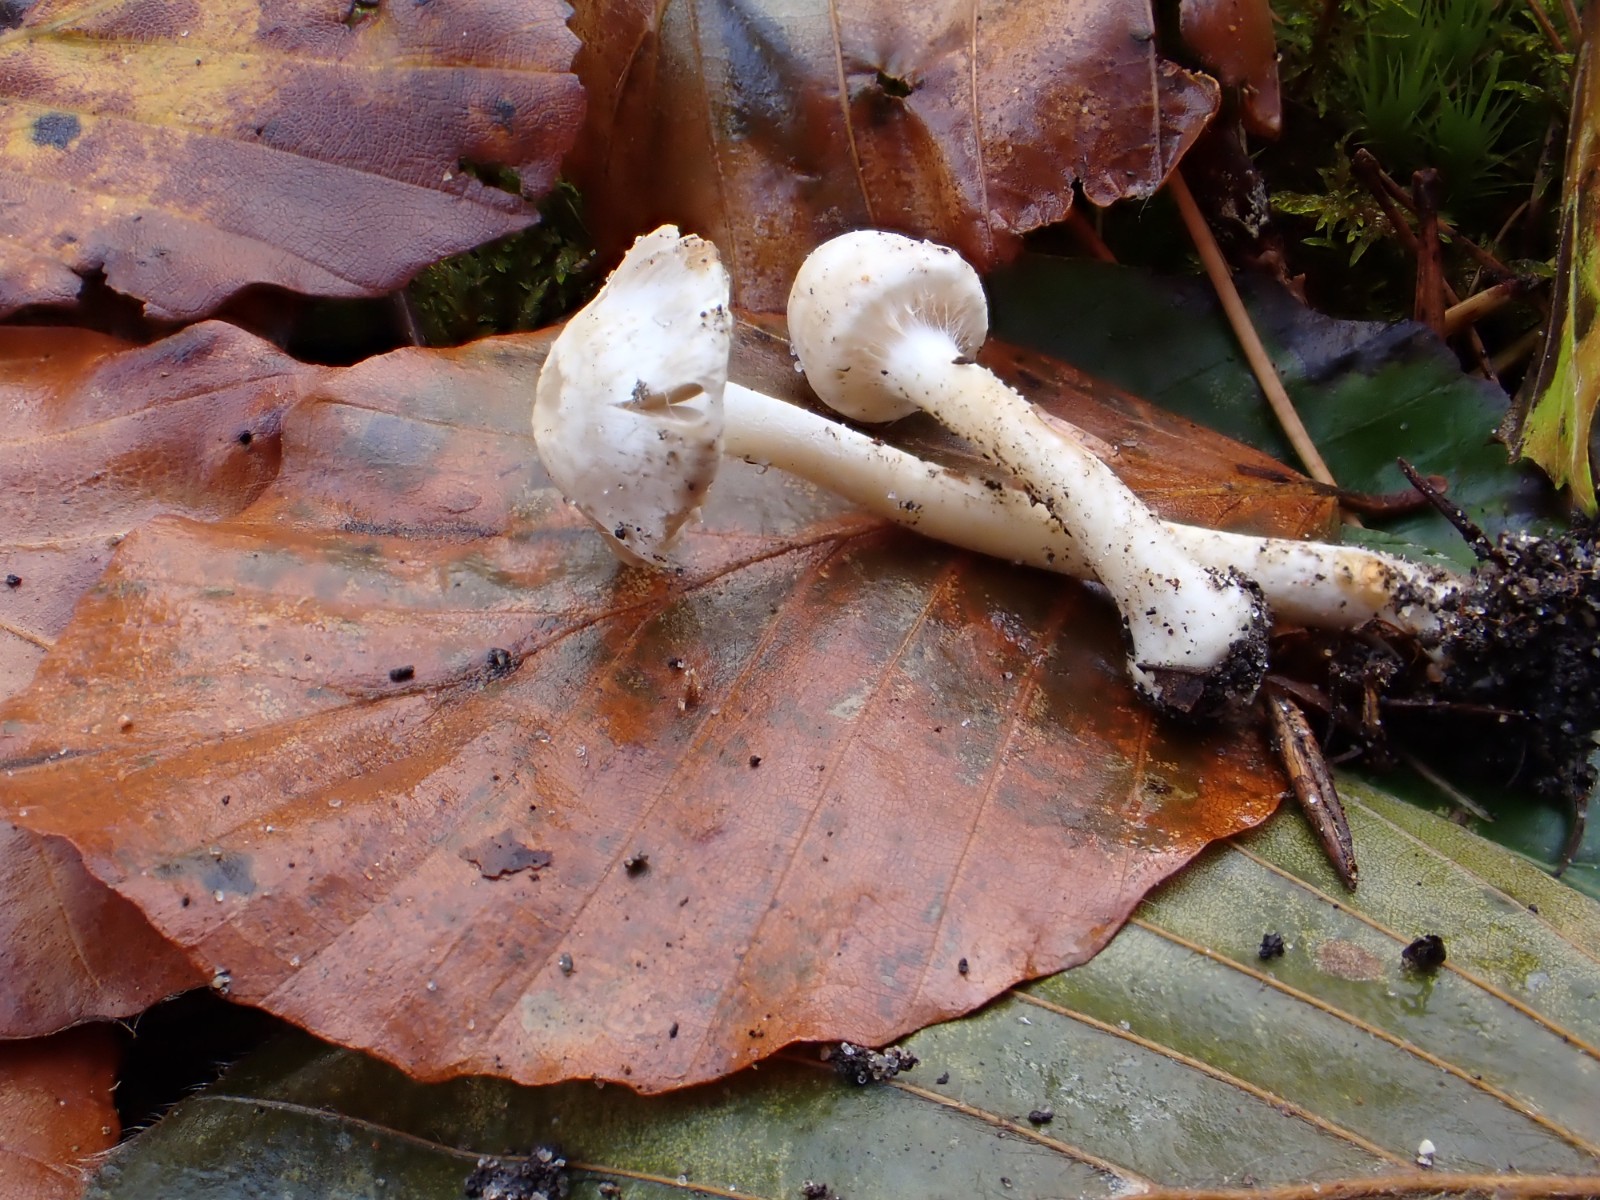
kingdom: Fungi
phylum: Basidiomycota
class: Agaricomycetes
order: Agaricales
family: Inocybaceae
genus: Inocybe
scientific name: Inocybe
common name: almindelig trævlhat
